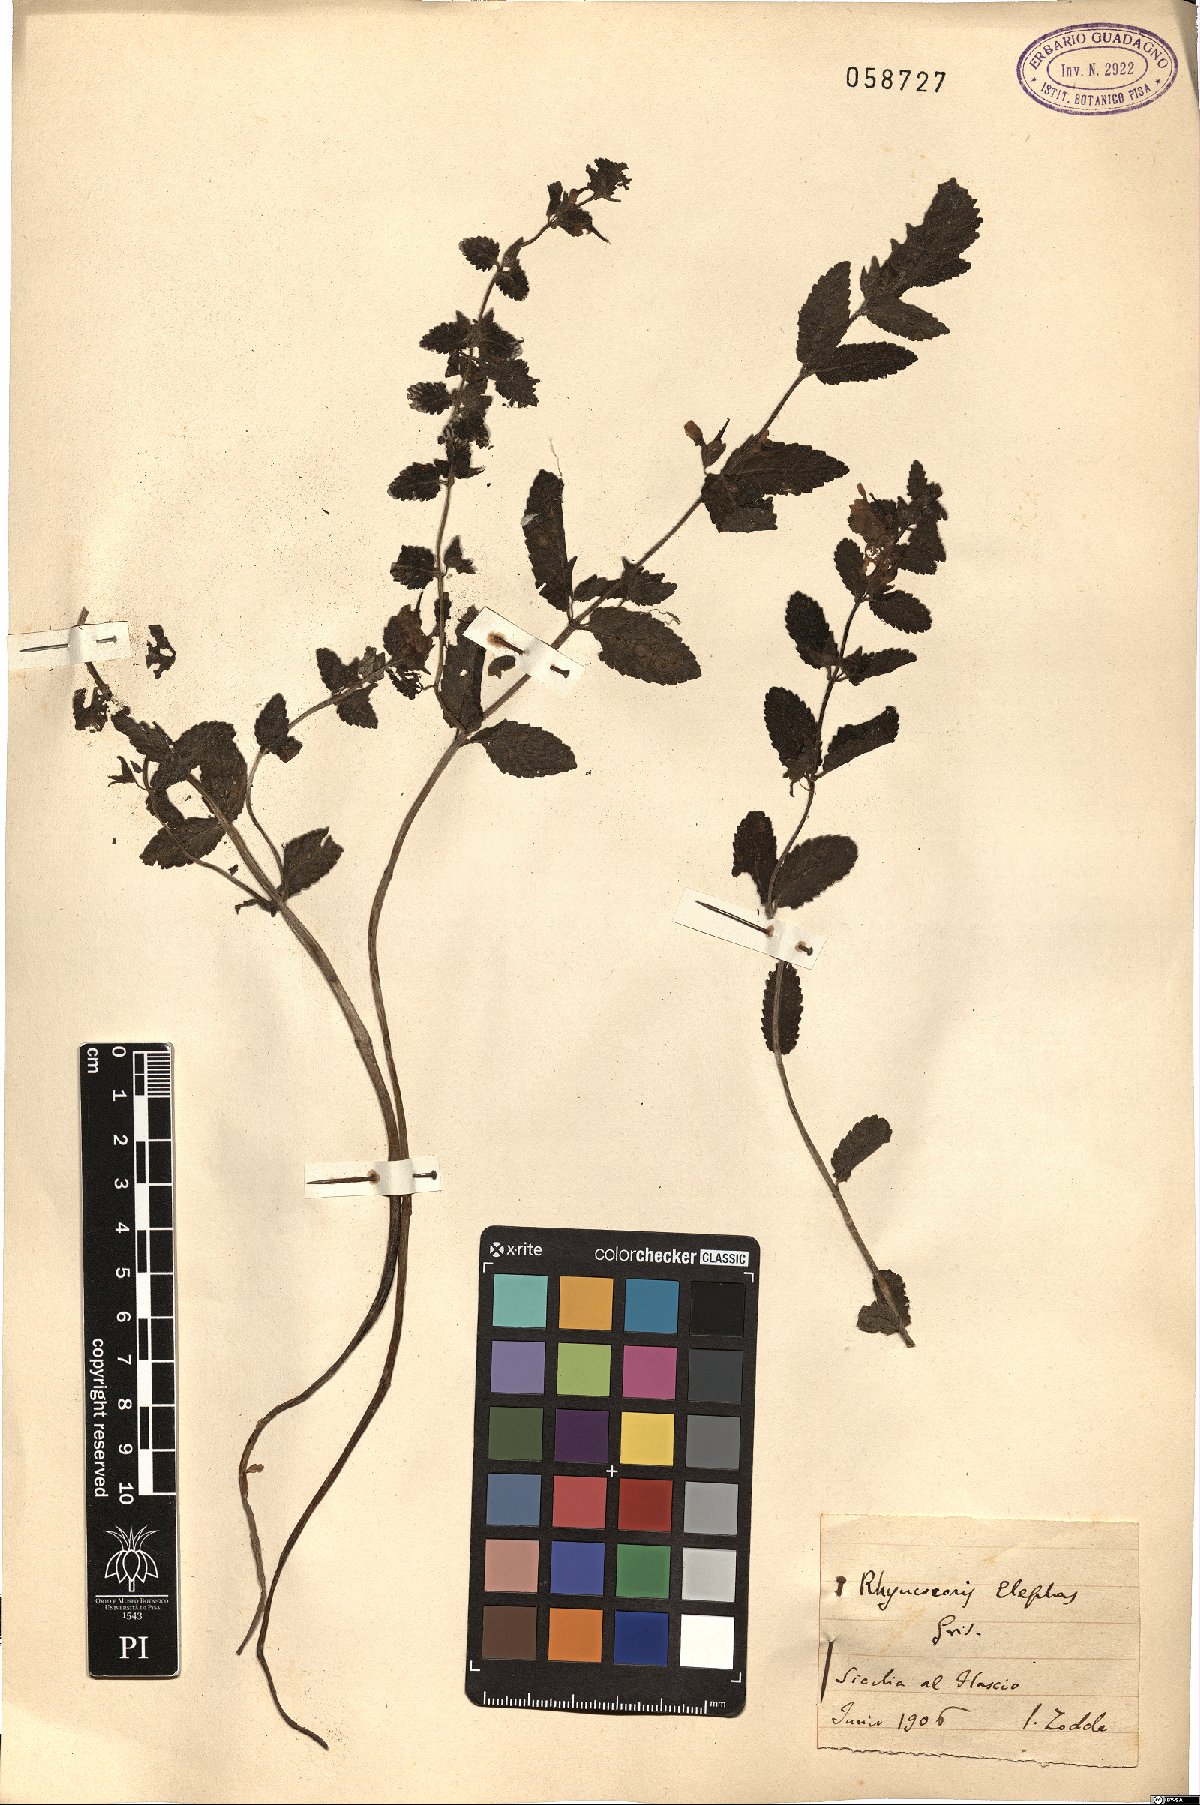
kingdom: Plantae
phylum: Tracheophyta
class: Magnoliopsida
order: Lamiales
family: Orobanchaceae
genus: Rhynchocorys
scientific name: Rhynchocorys elephas
